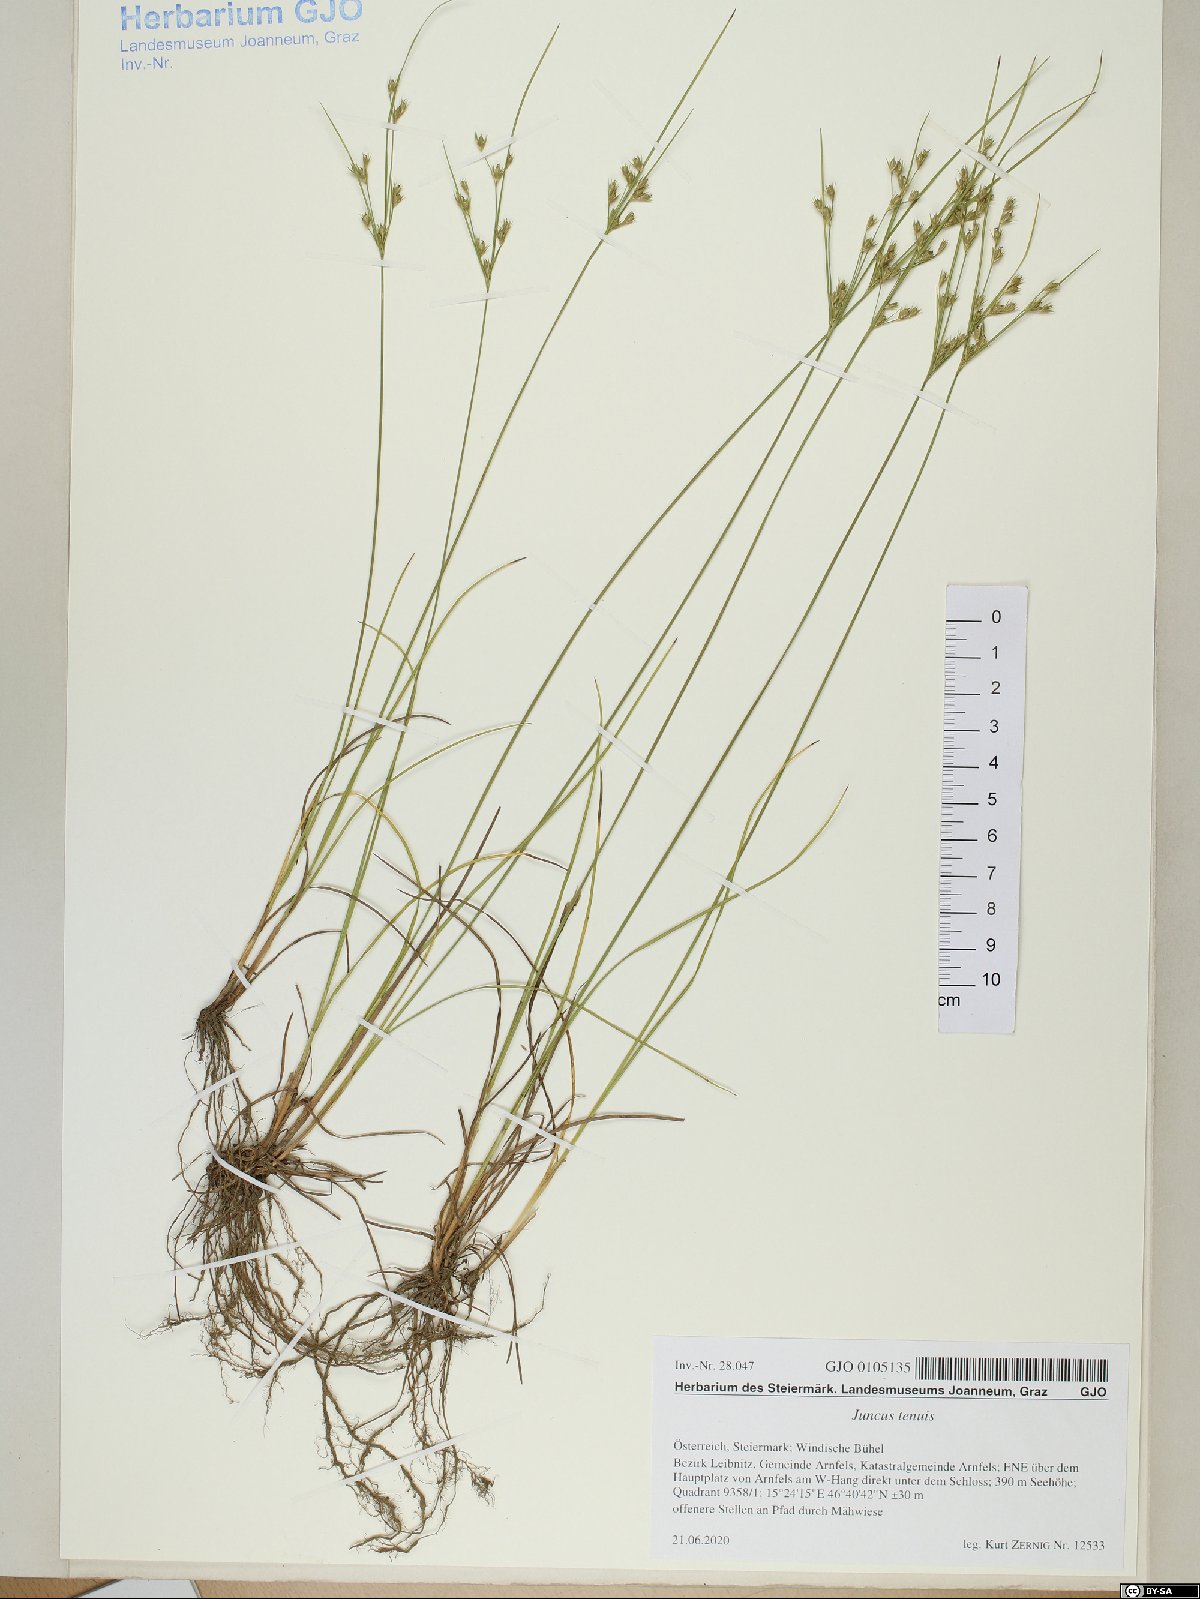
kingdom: Plantae
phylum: Tracheophyta
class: Liliopsida
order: Poales
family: Juncaceae
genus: Juncus
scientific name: Juncus tenuis
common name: Slender rush
